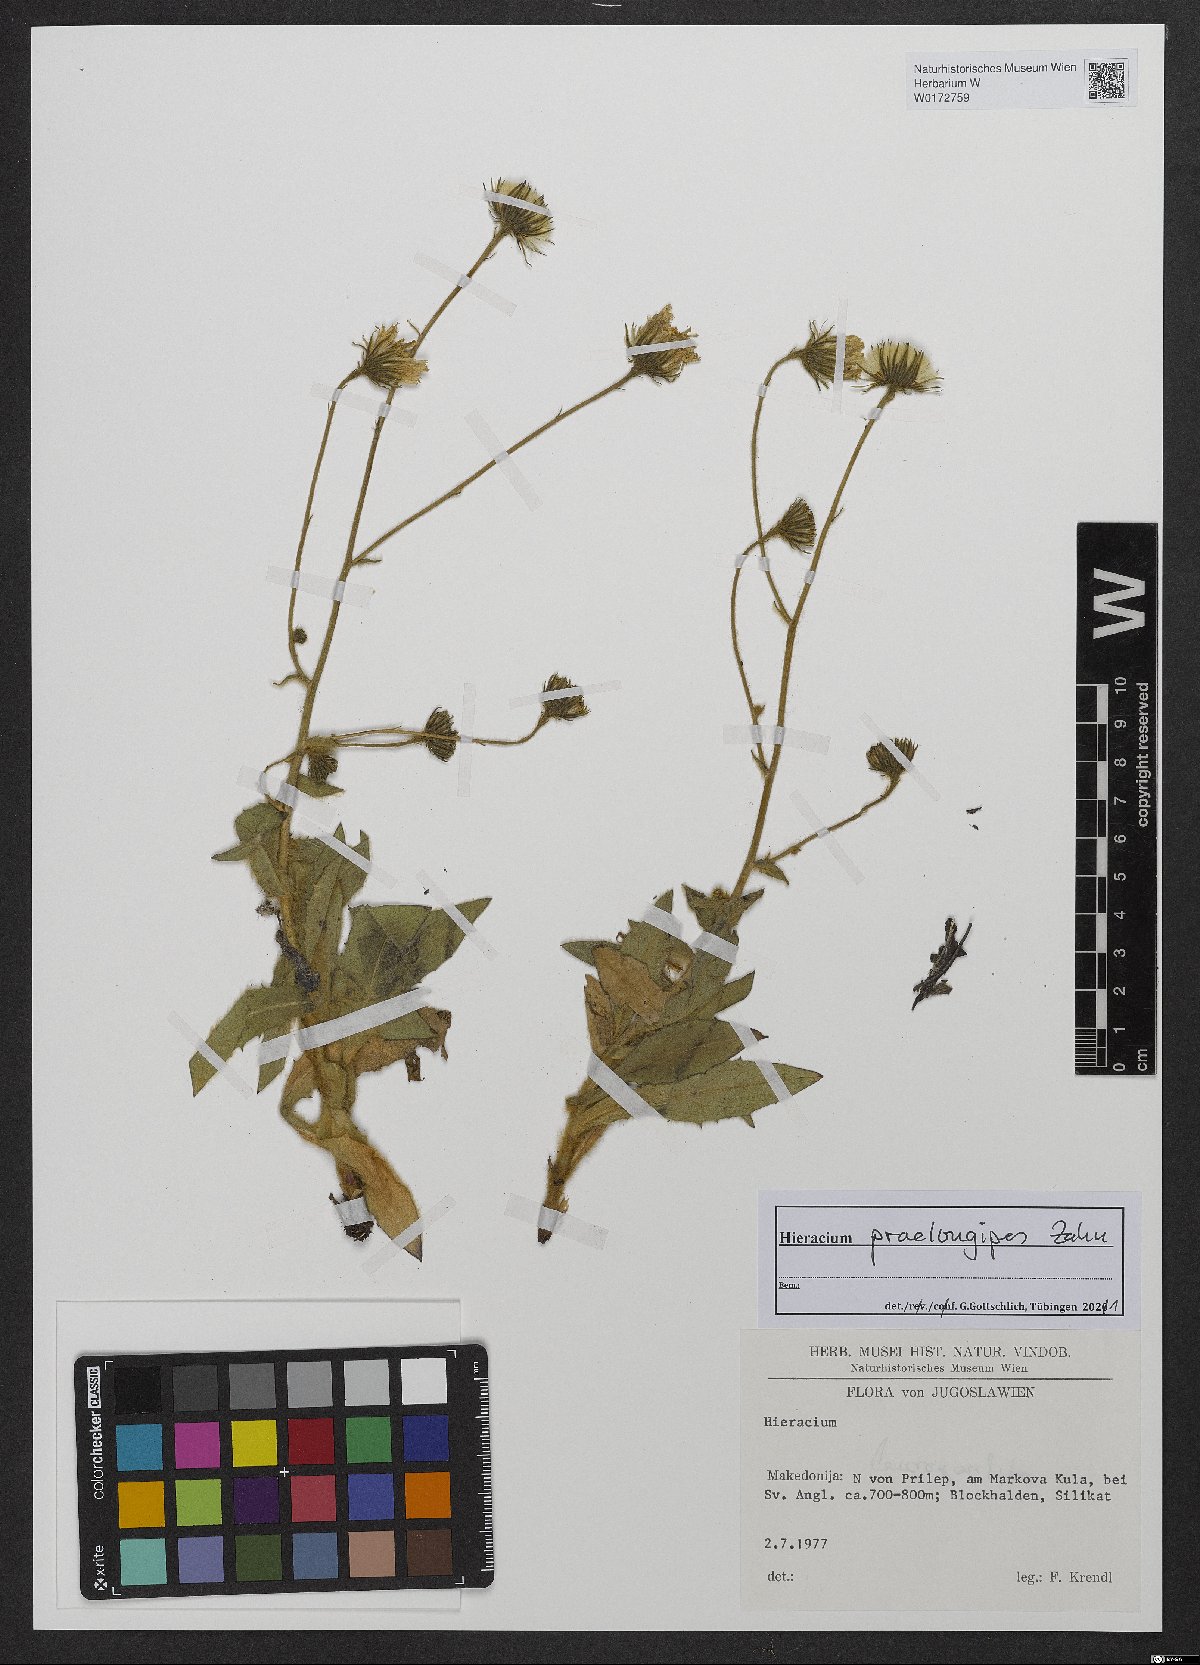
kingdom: Plantae
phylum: Tracheophyta
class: Magnoliopsida
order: Asterales
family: Asteraceae
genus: Hieracium
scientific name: Hieracium praelongipes
